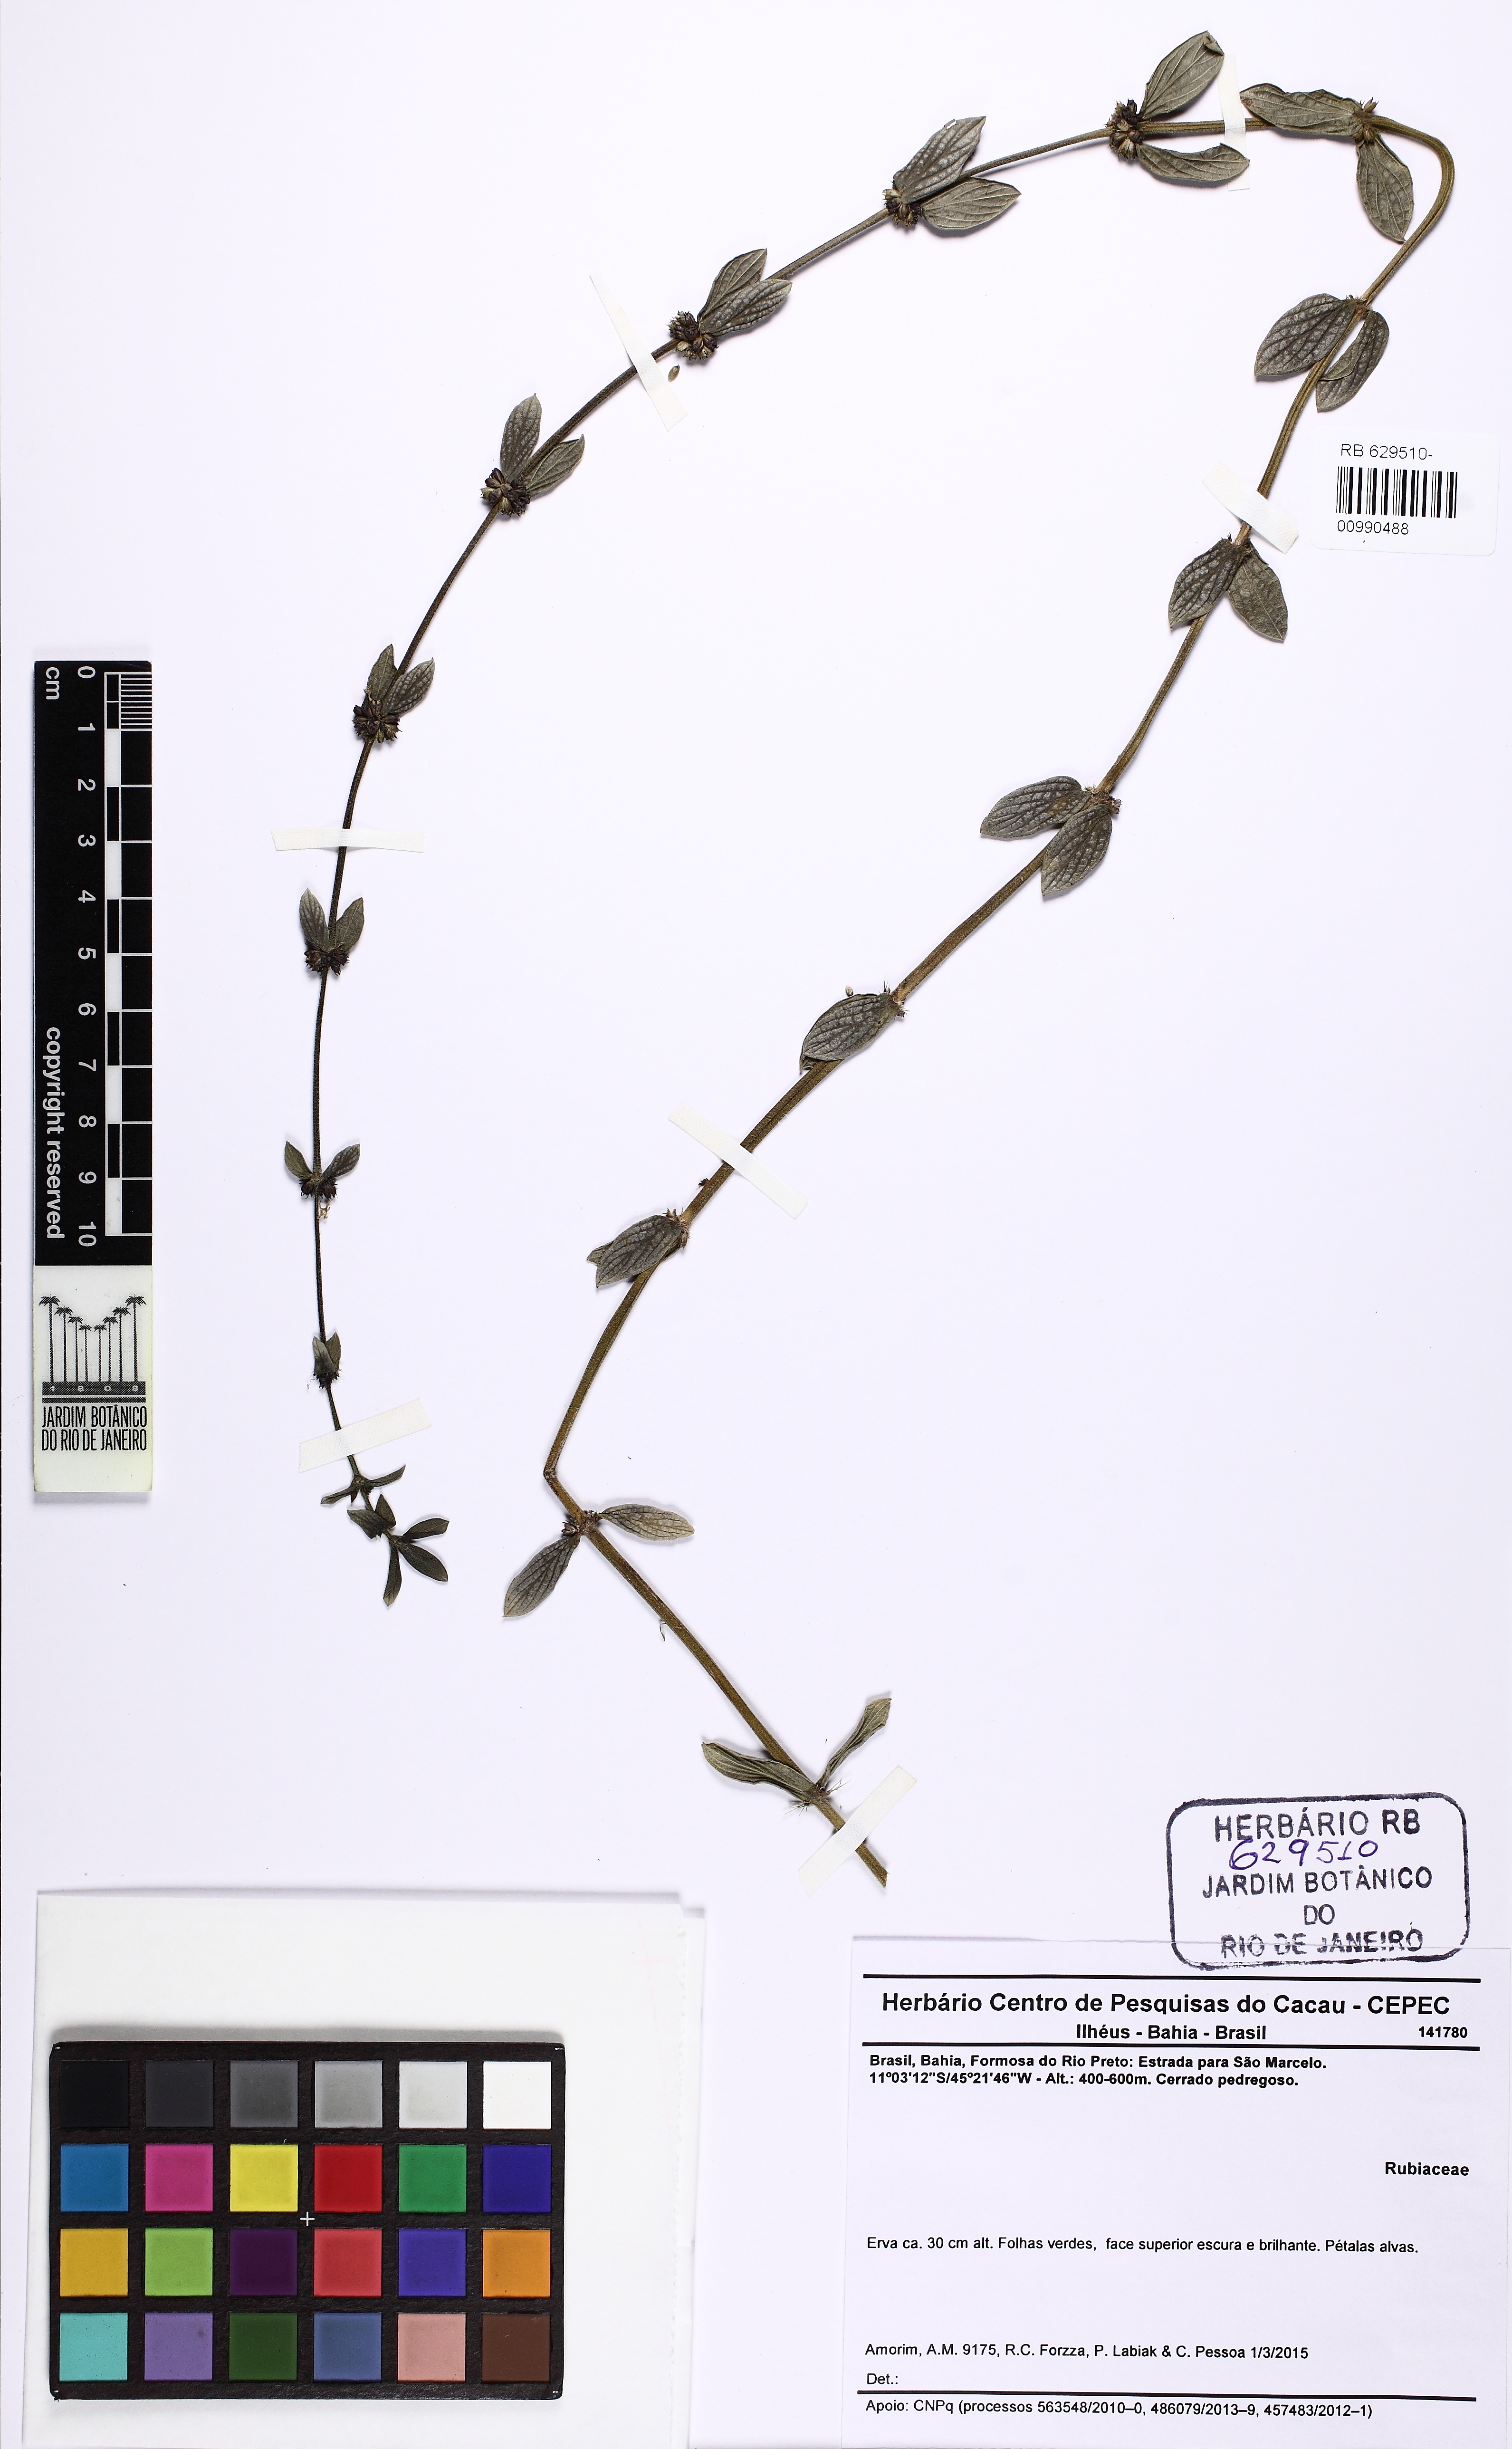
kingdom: Plantae
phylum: Tracheophyta
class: Magnoliopsida
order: Gentianales
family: Rubiaceae
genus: Spermacoce
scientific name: Spermacoce
